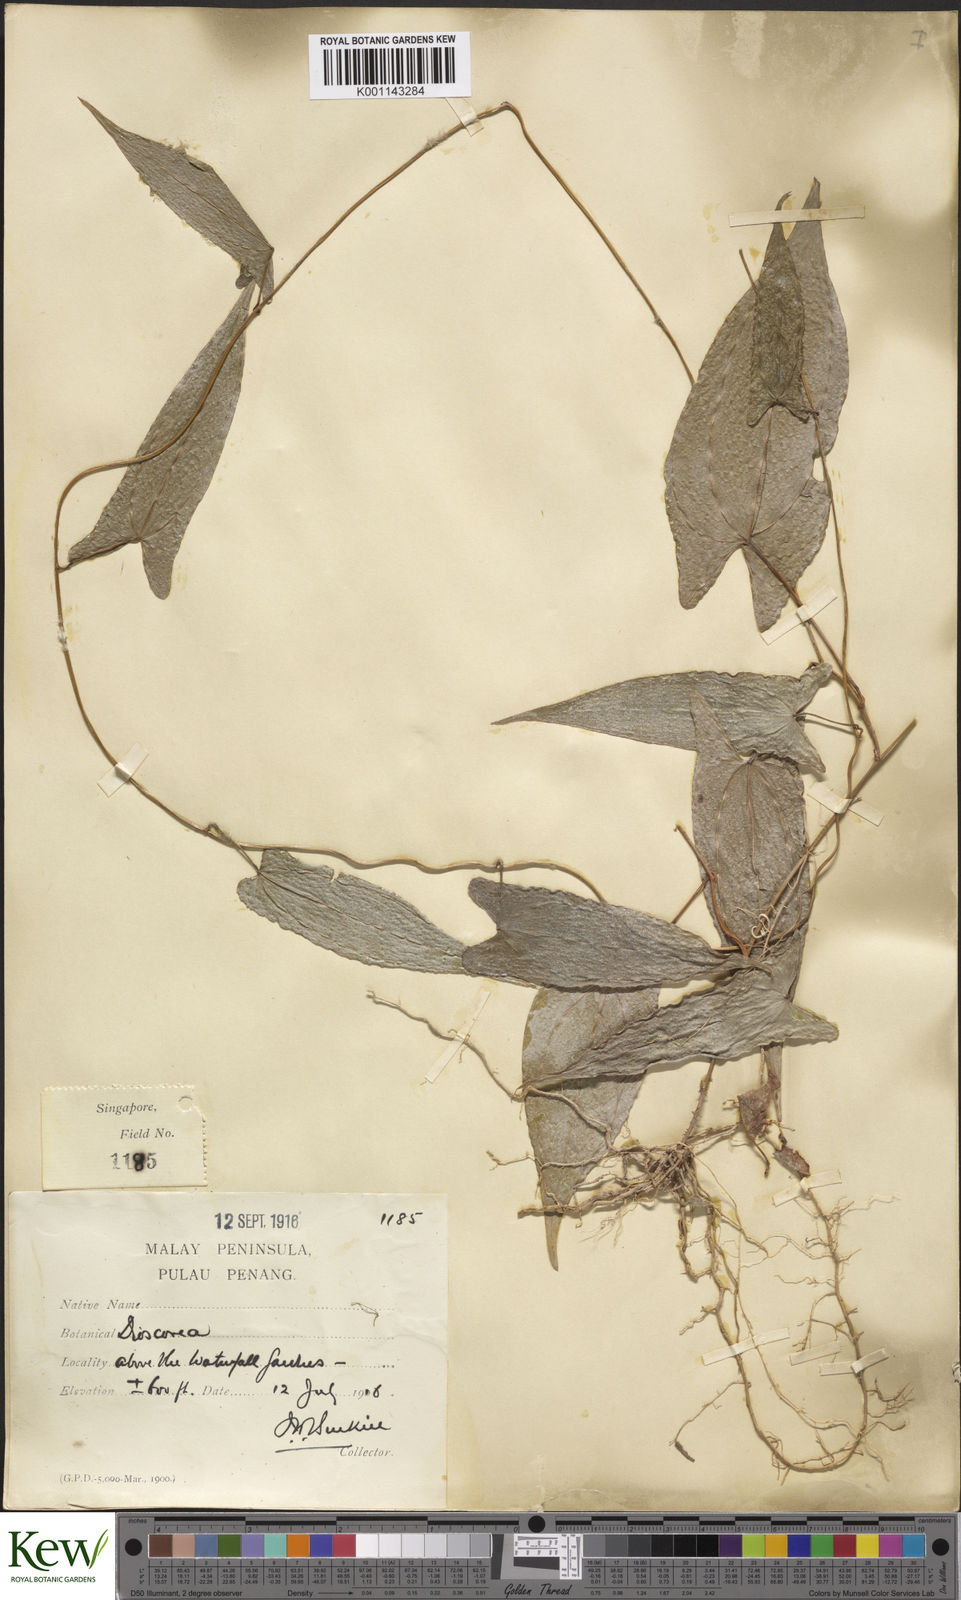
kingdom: Plantae
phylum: Tracheophyta
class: Liliopsida
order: Dioscoreales
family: Dioscoreaceae
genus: Dioscorea
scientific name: Dioscorea glabra
